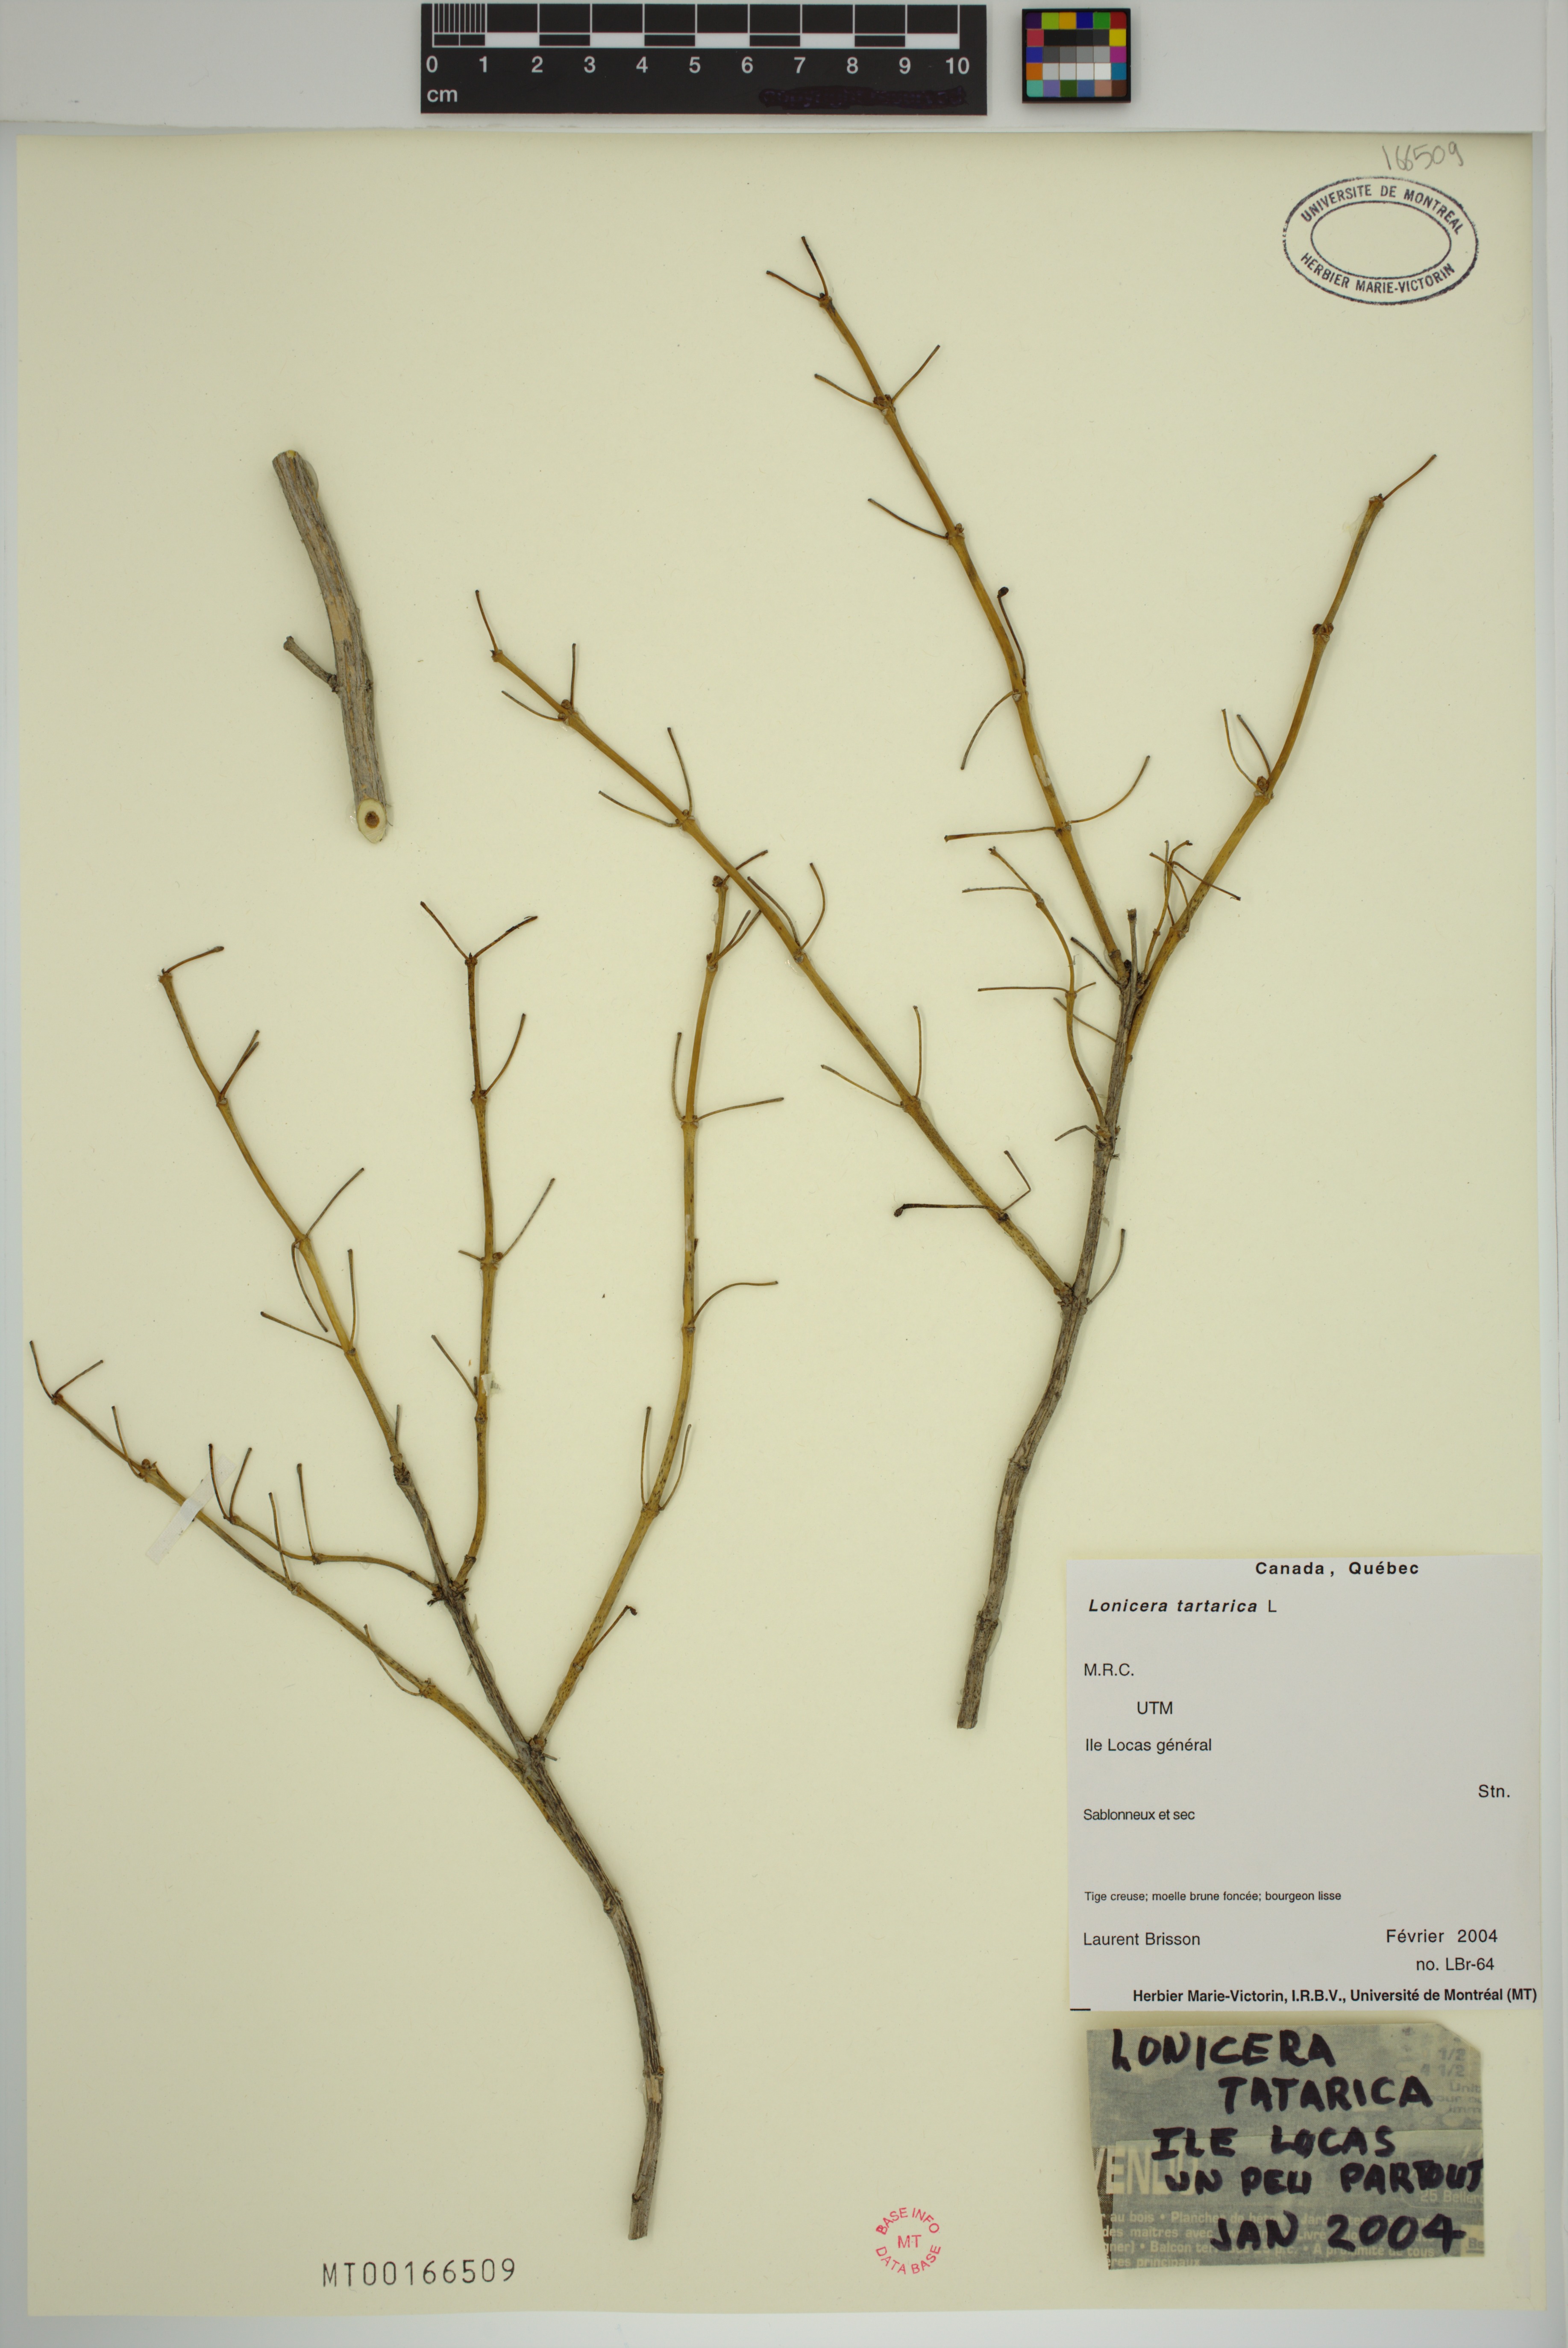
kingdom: Plantae
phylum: Tracheophyta
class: Magnoliopsida
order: Dipsacales
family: Caprifoliaceae
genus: Lonicera
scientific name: Lonicera tatarica
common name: Tatarian honeysuckle
